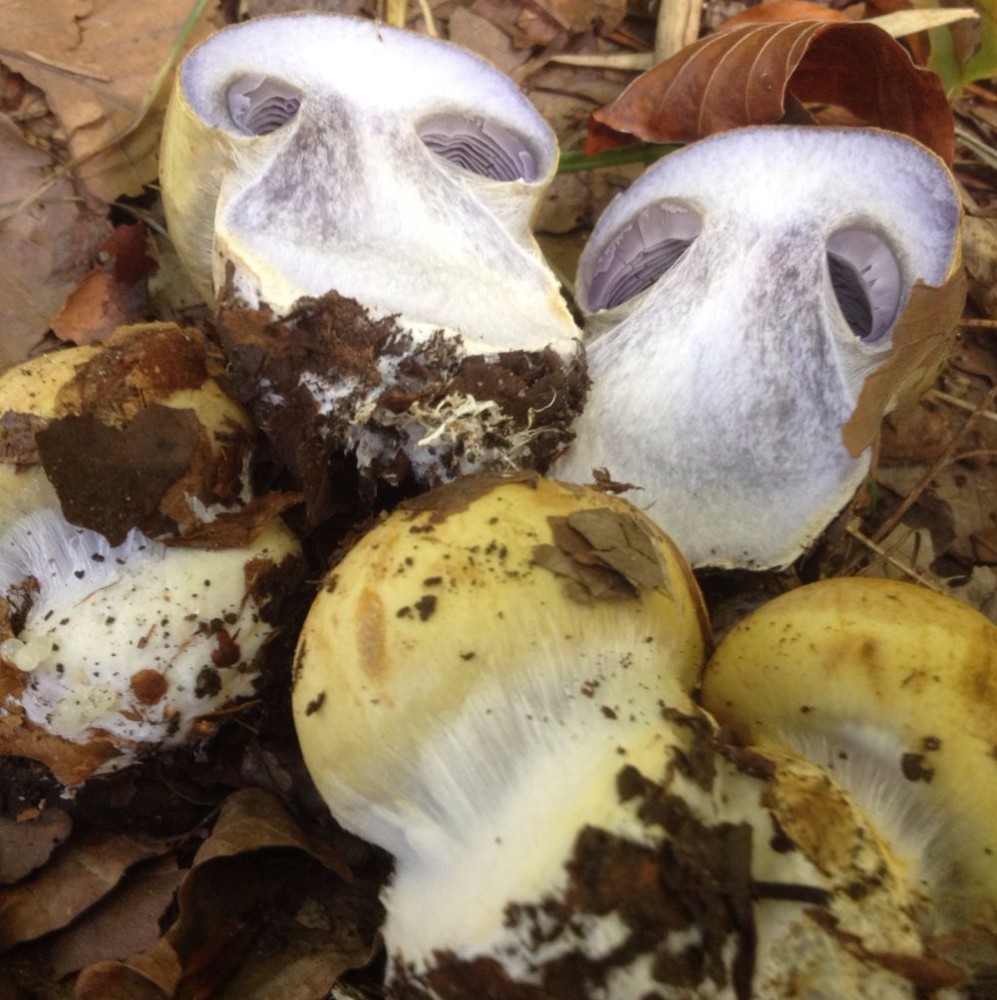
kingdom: Fungi
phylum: Basidiomycota
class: Agaricomycetes
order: Agaricales
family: Cortinariaceae
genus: Cortinarius
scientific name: Cortinarius anserinus
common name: bøge-slørhat
